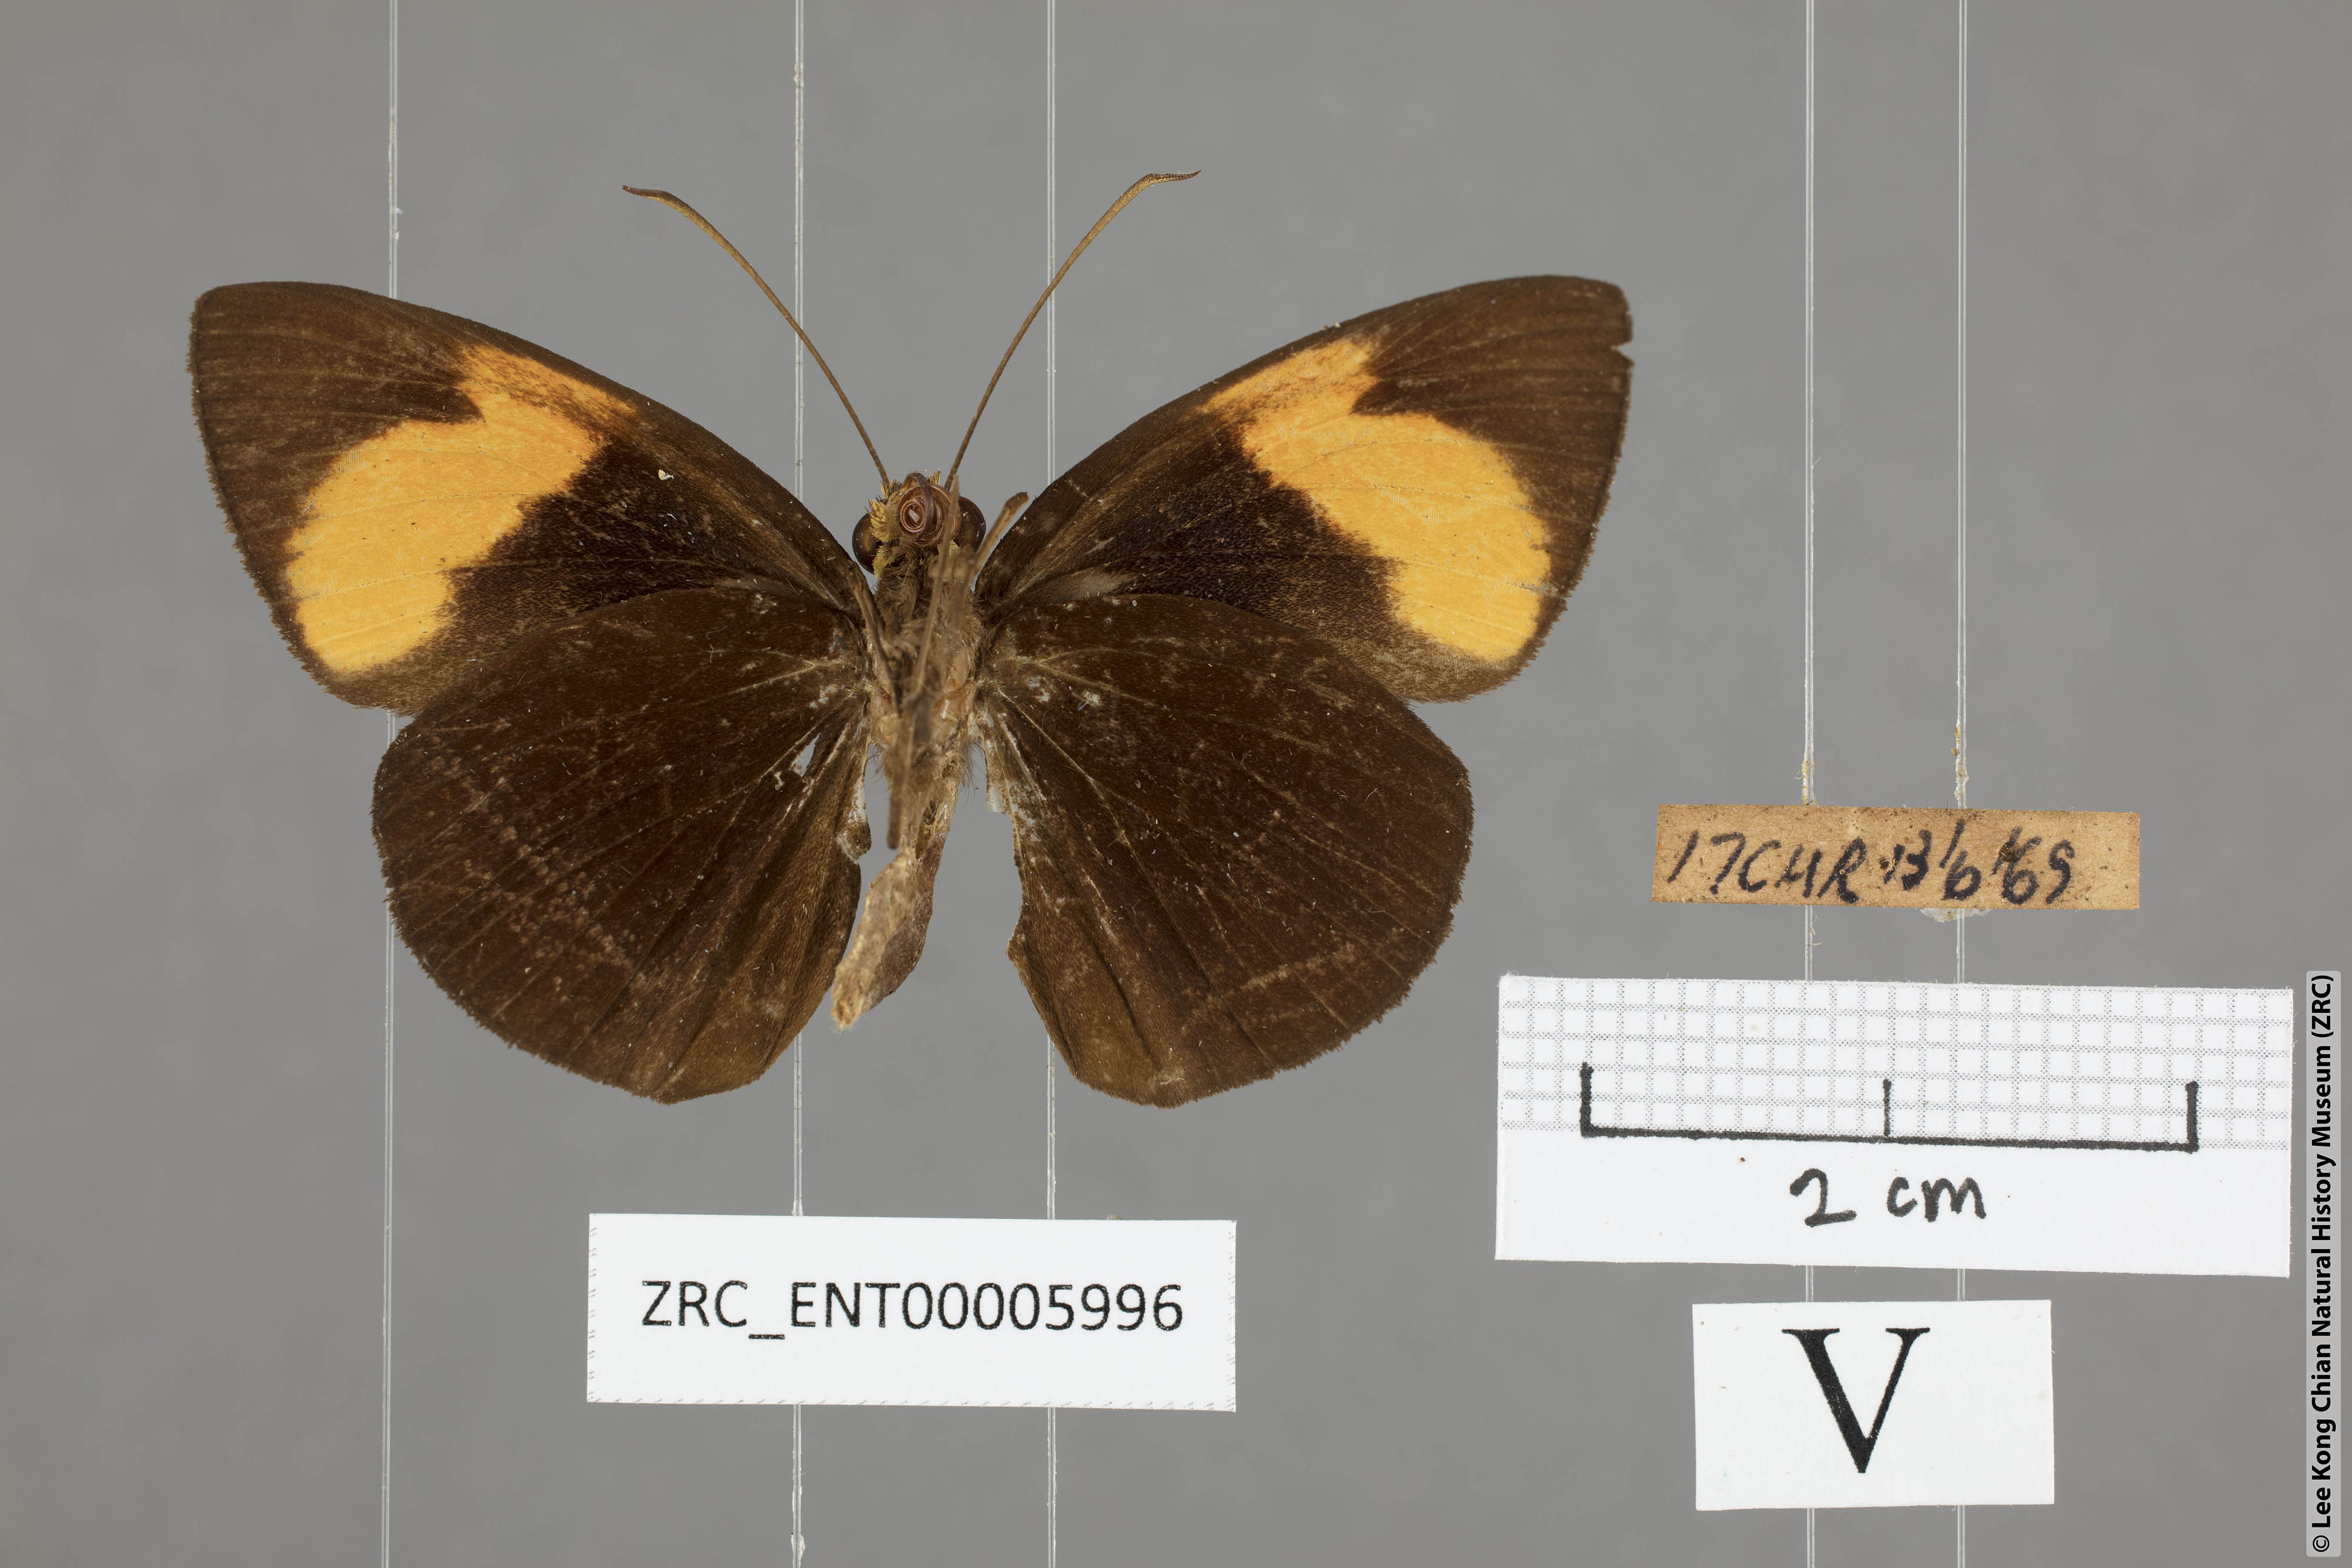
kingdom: Animalia
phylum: Arthropoda
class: Insecta
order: Lepidoptera
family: Hesperiidae
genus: Ancistroides
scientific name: Ancistroides armatus
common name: Red demon
